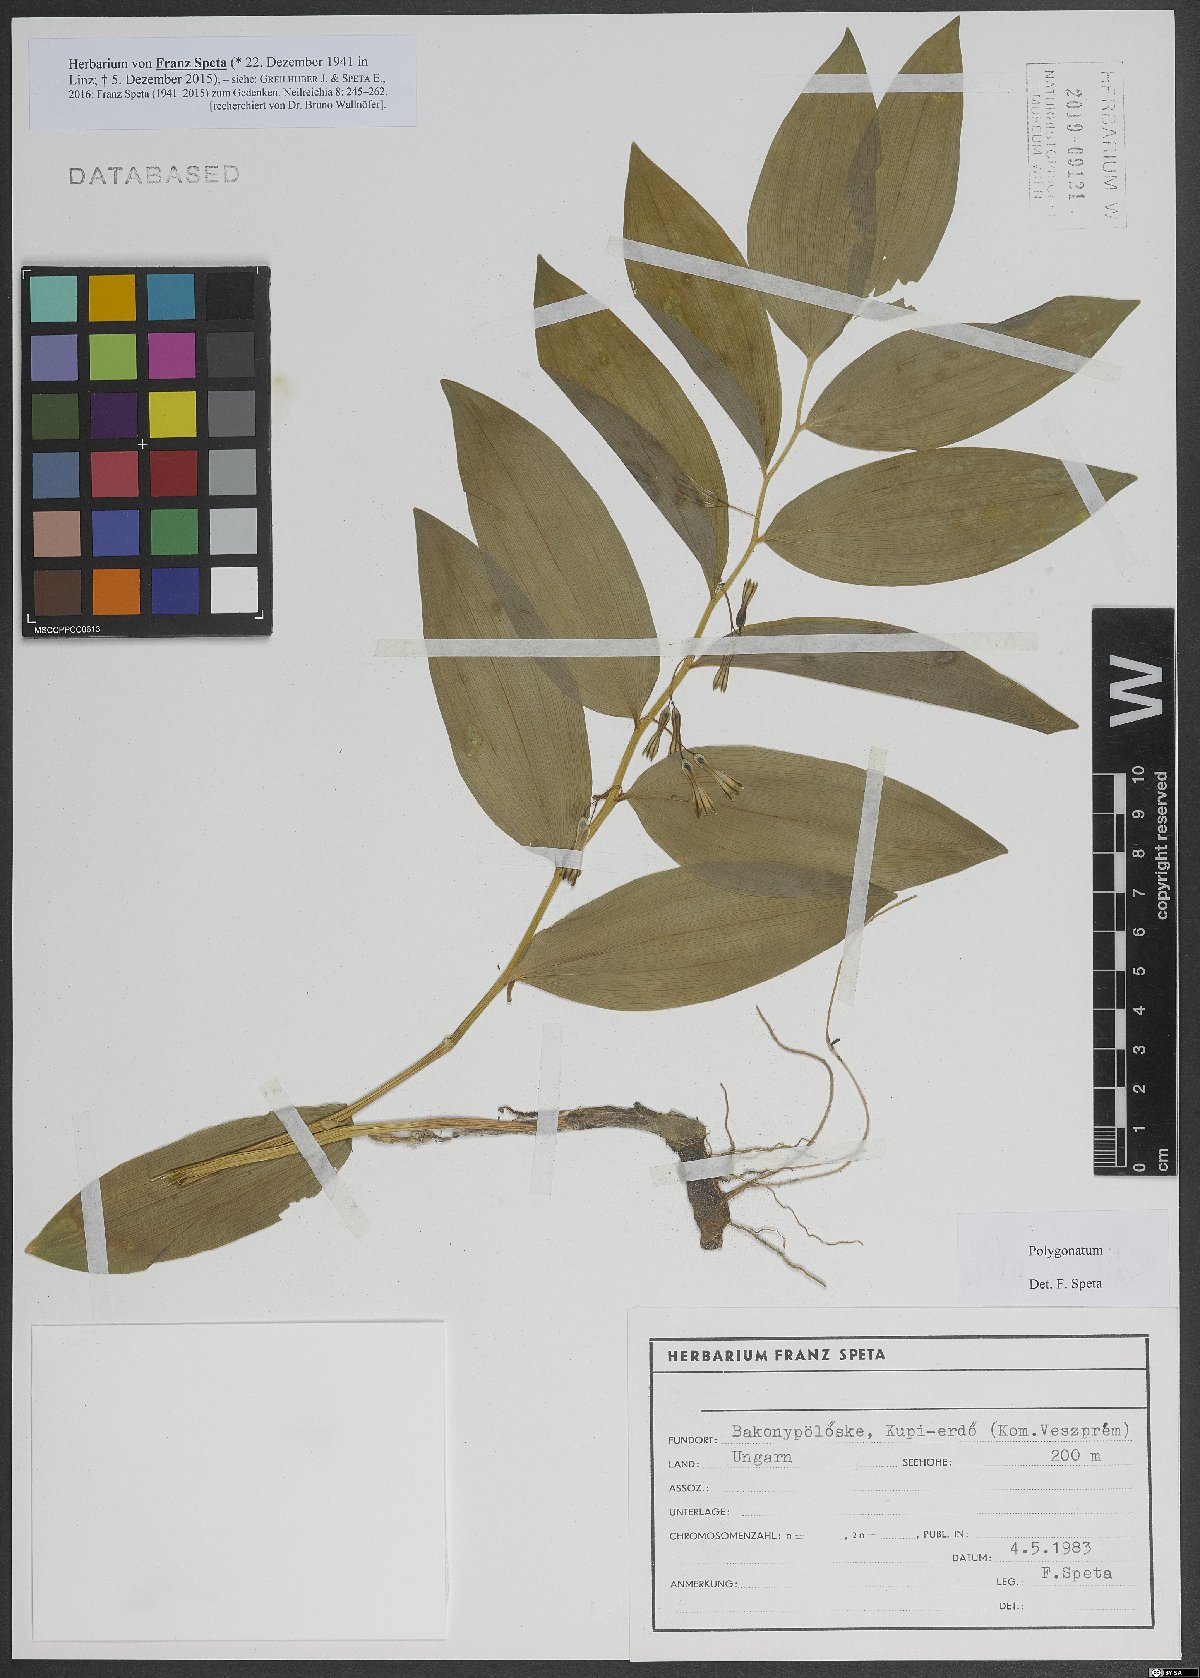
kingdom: Plantae
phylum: Tracheophyta
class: Liliopsida
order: Asparagales
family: Asparagaceae
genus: Polygonatum
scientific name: Polygonatum
